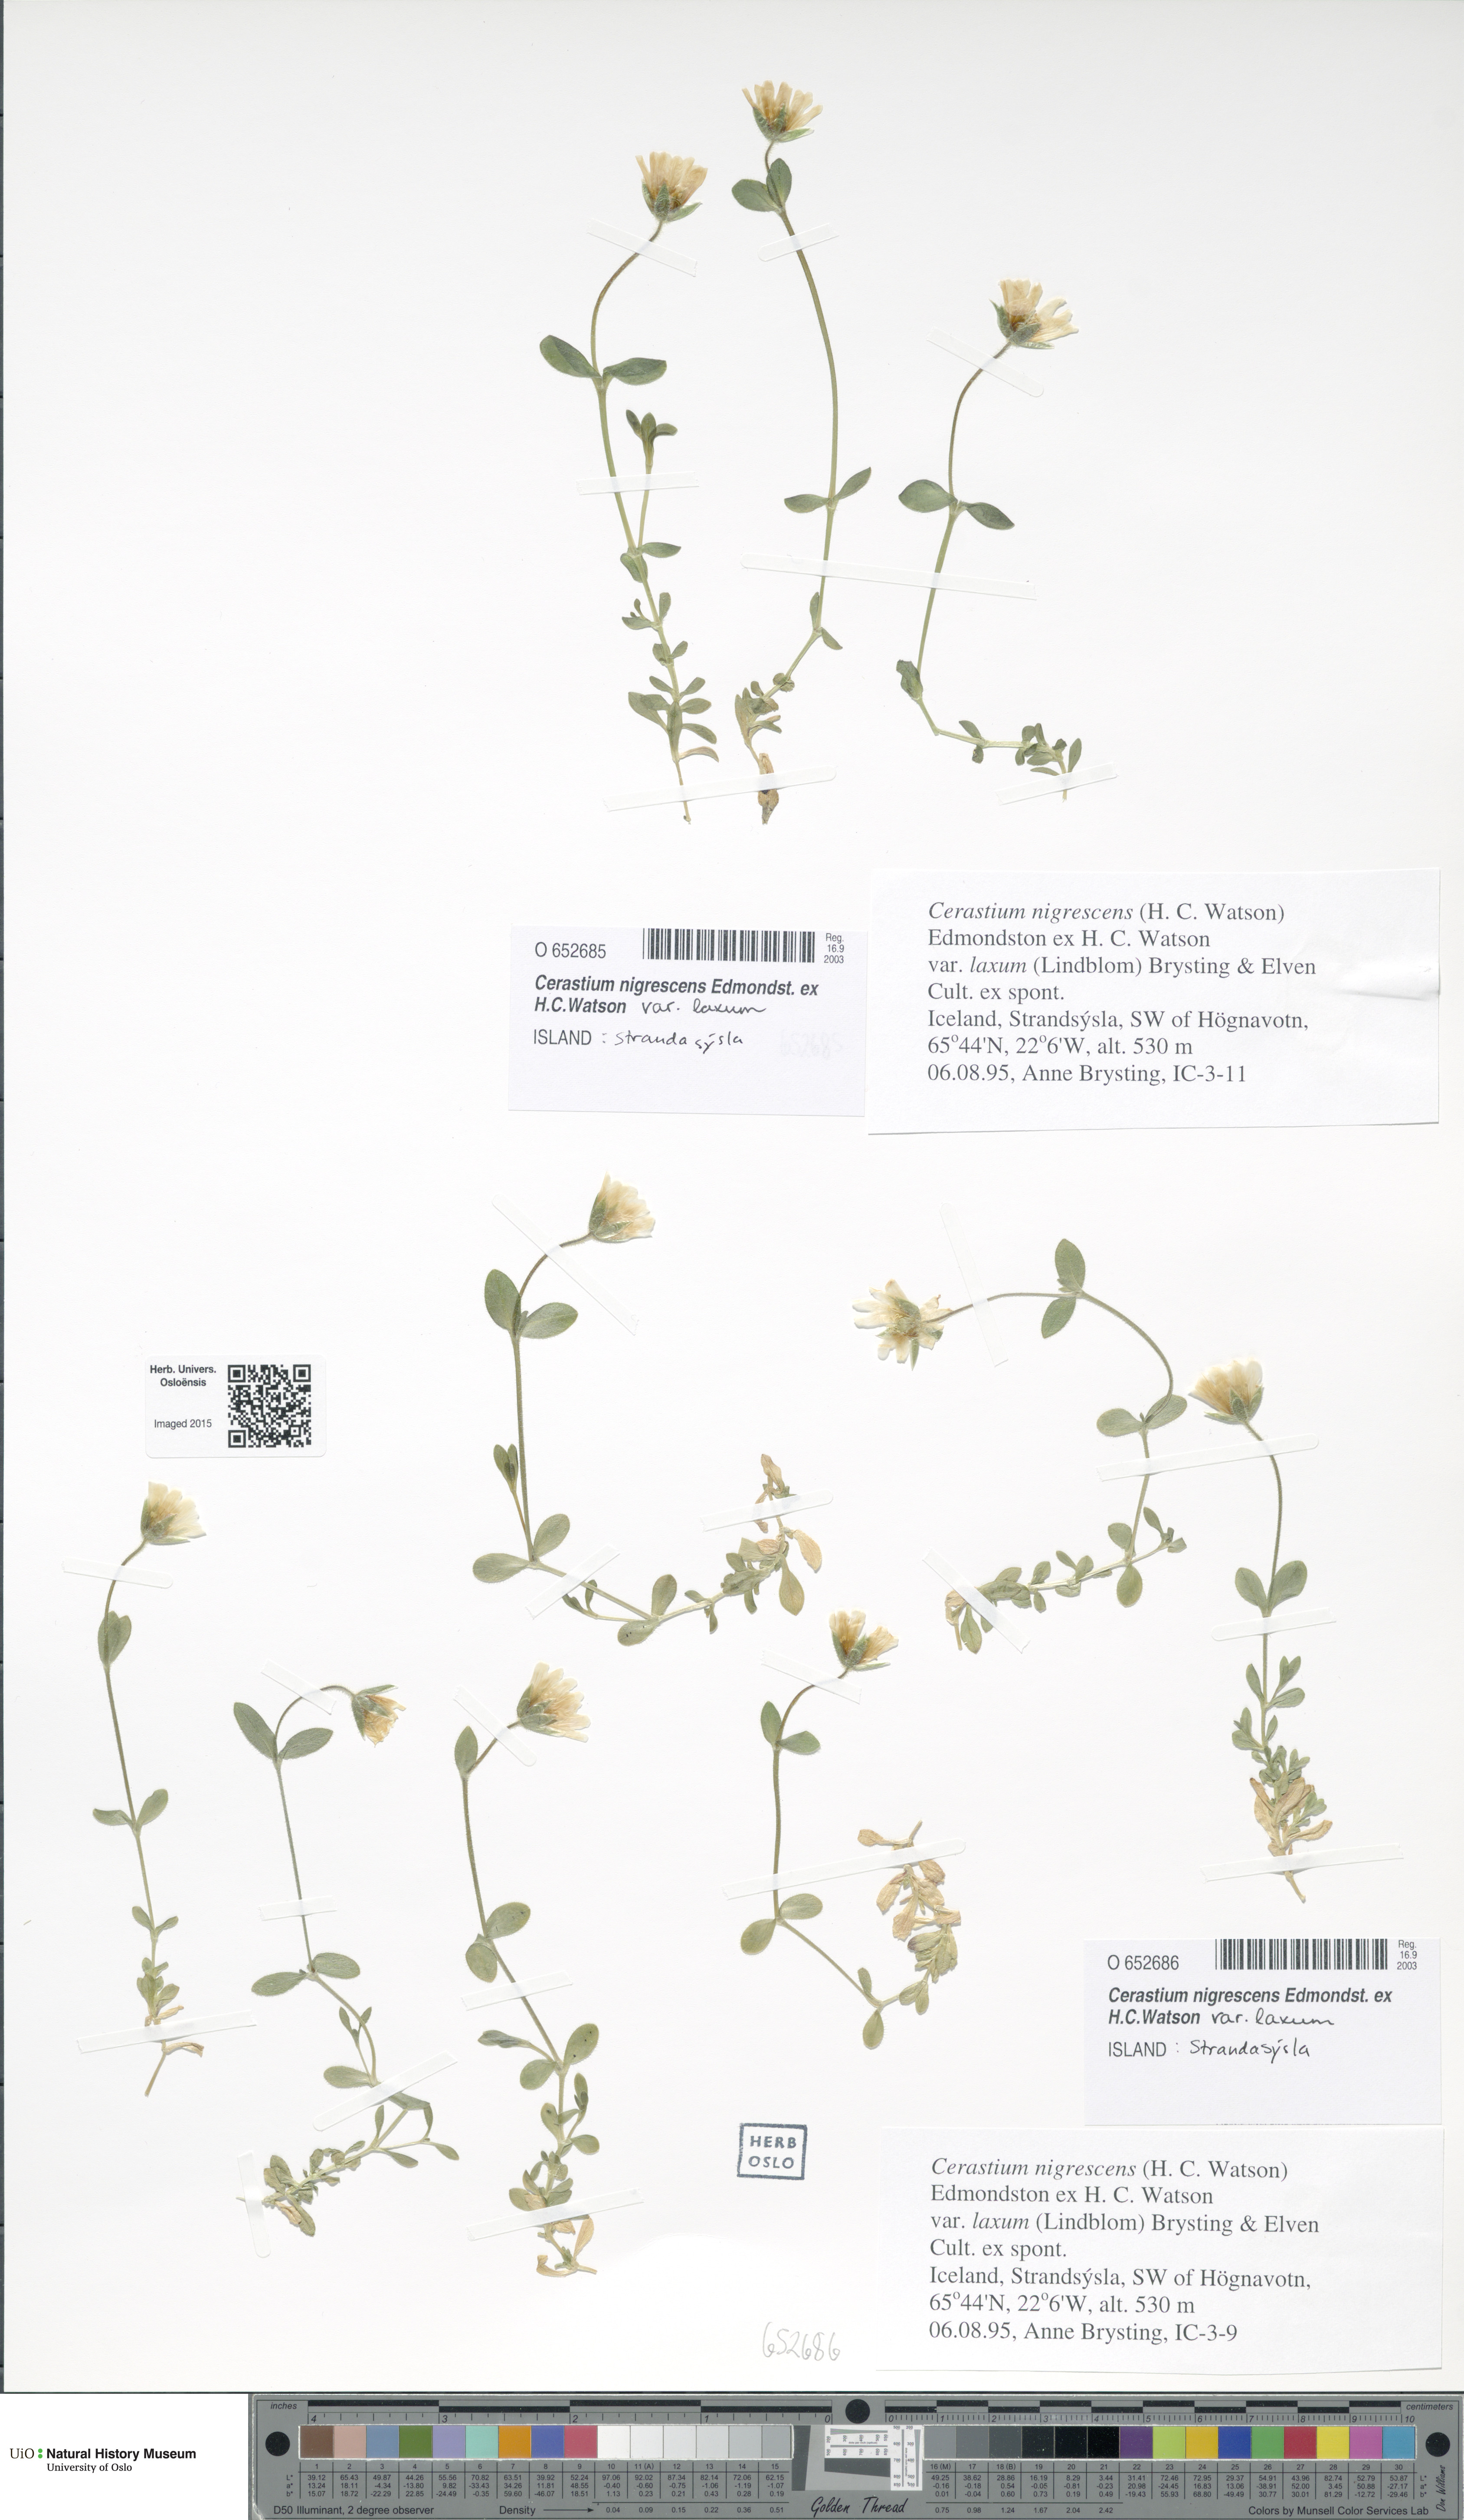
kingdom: Plantae
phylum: Tracheophyta
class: Magnoliopsida
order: Caryophyllales
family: Caryophyllaceae
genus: Cerastium
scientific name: Cerastium nigrescens
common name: Shetland mouse-ear
